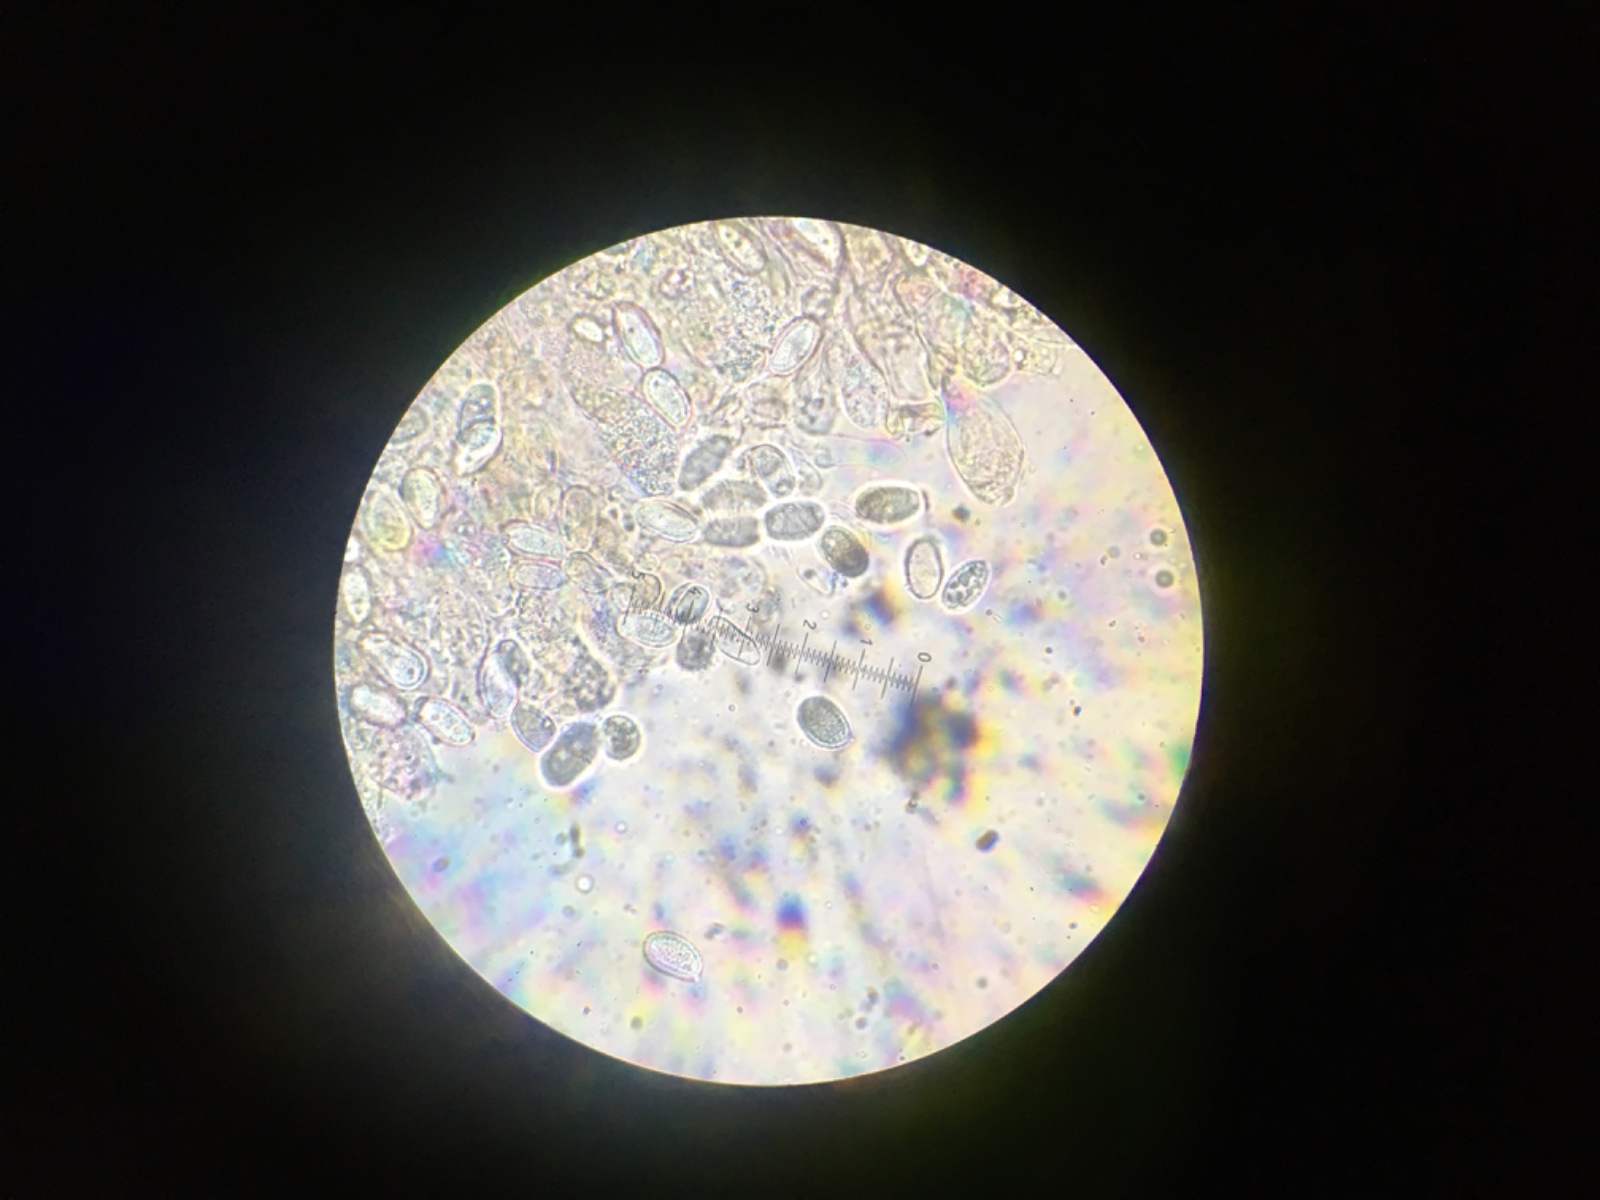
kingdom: Fungi
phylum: Basidiomycota
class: Agaricomycetes
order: Agaricales
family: Hydnangiaceae
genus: Laccaria
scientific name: Laccaria maritima
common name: klit-ametysthat
